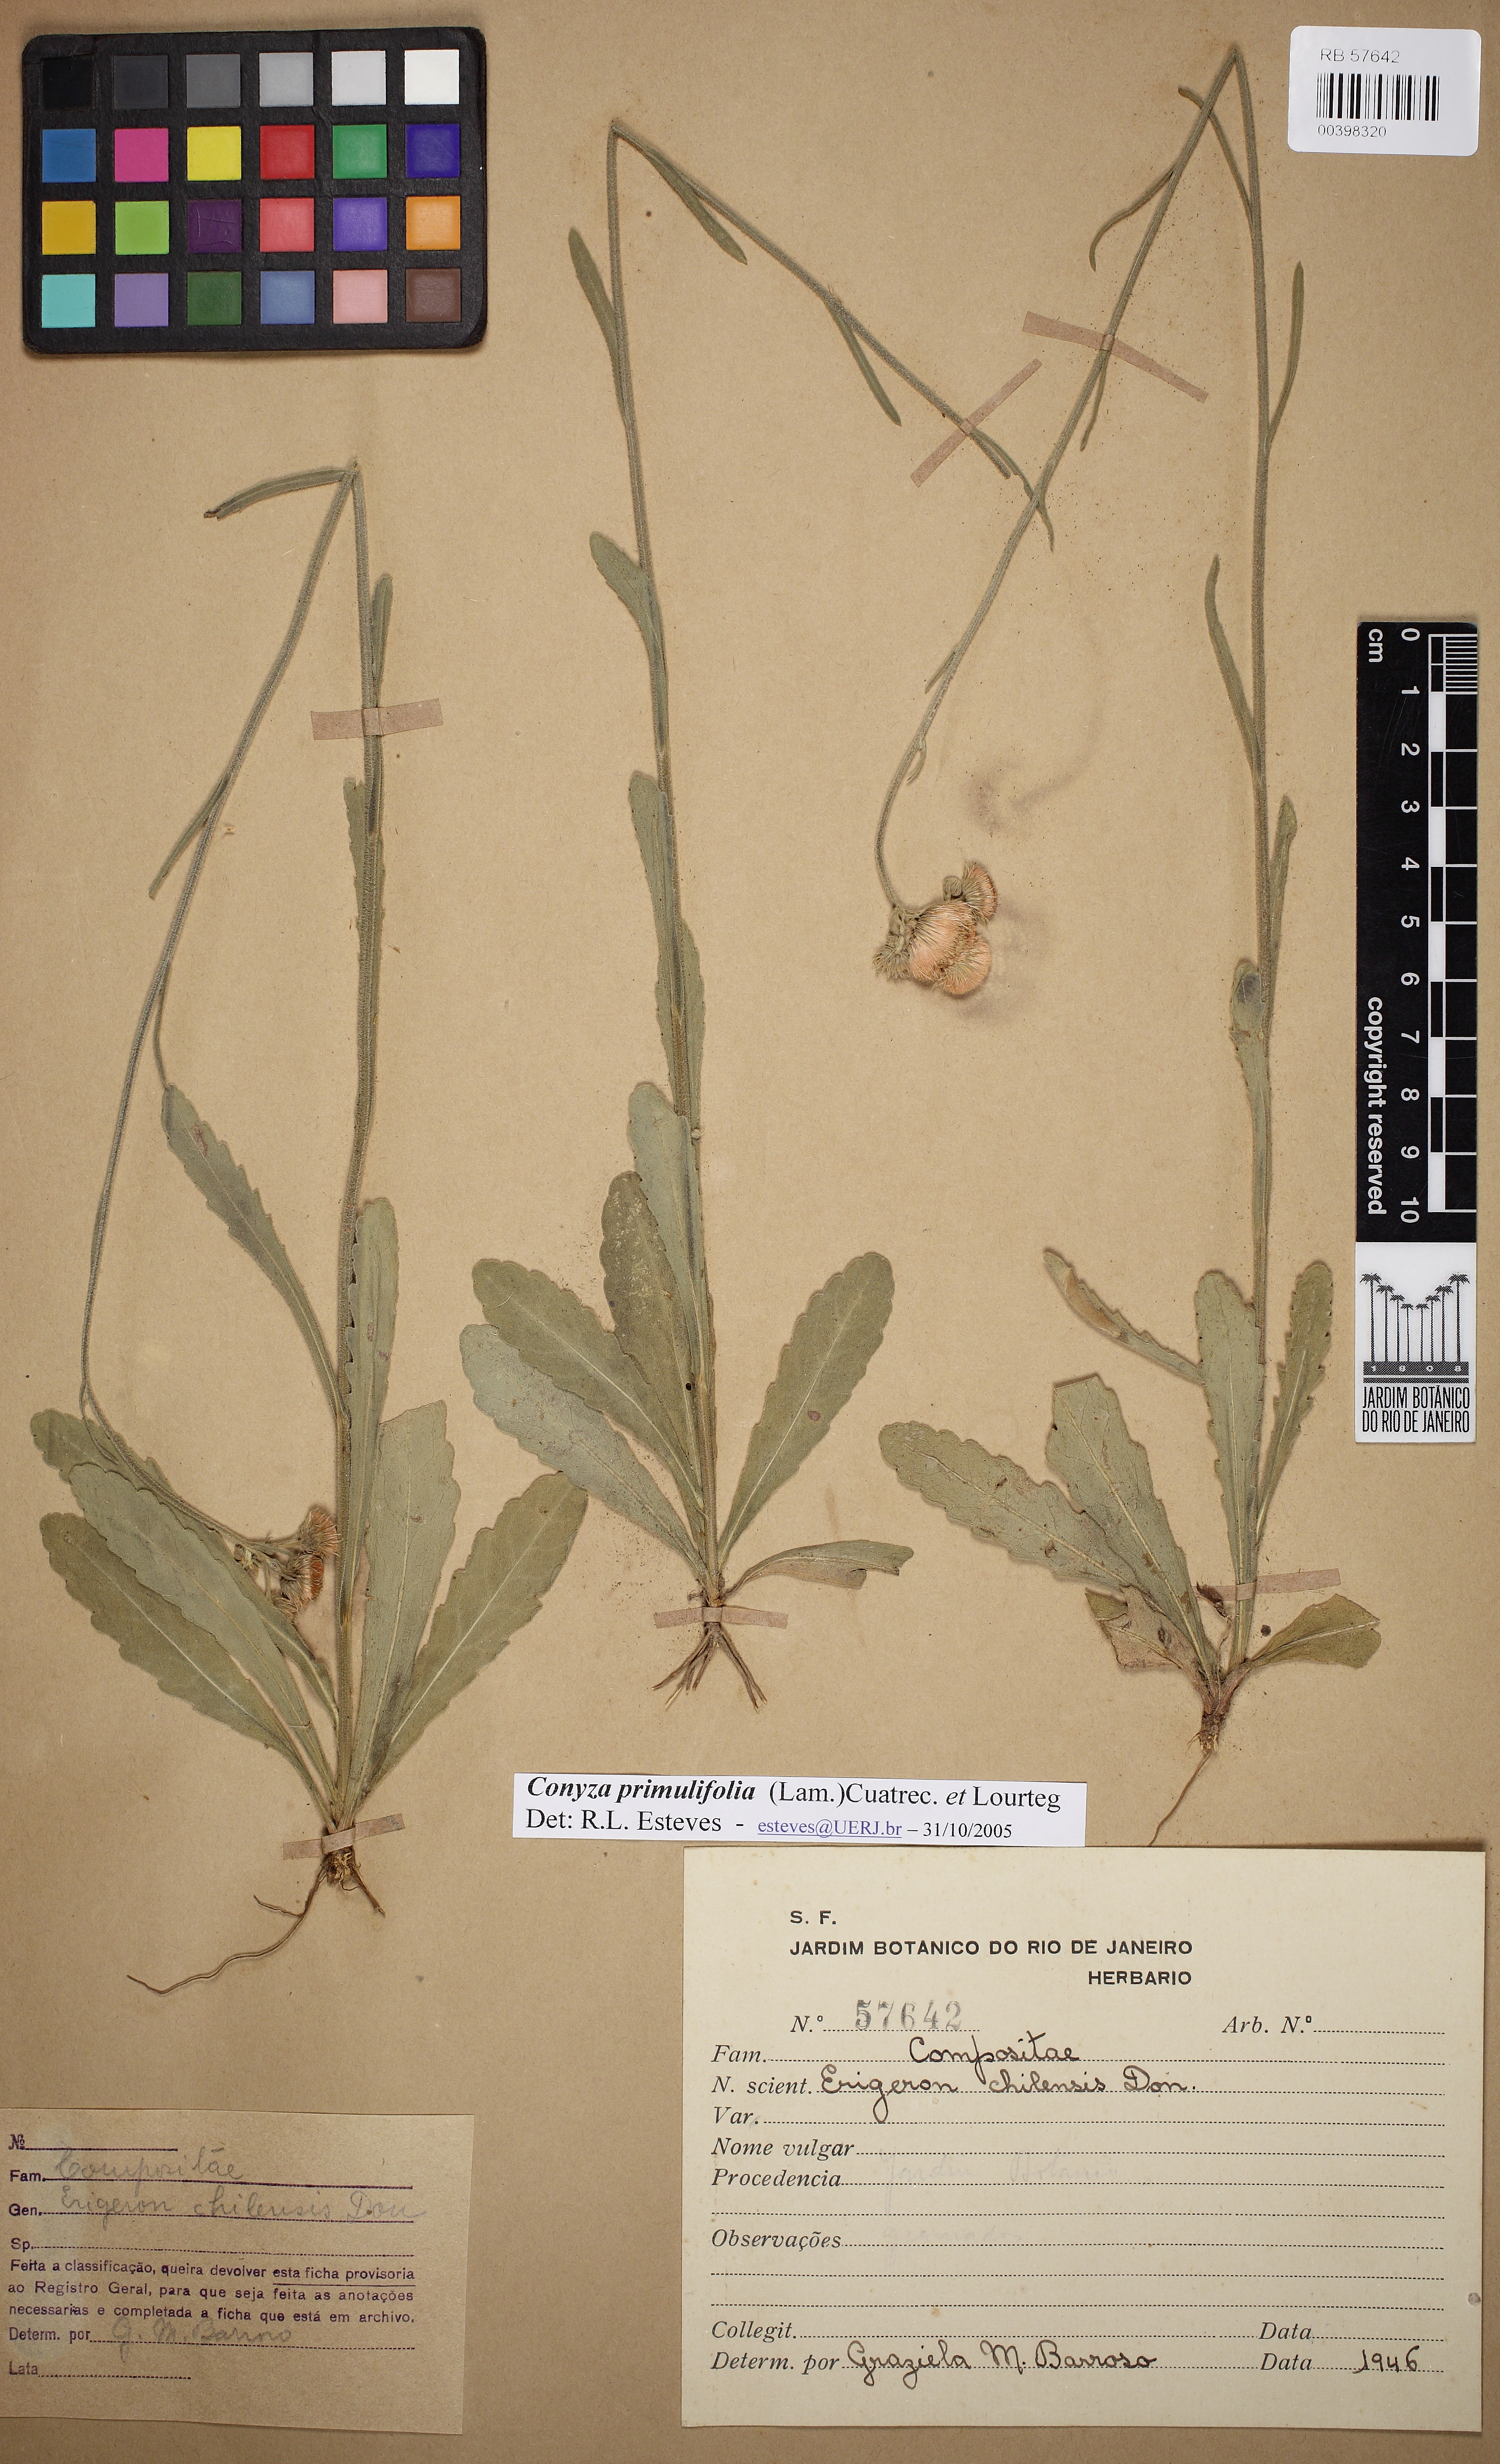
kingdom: Plantae
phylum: Tracheophyta
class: Magnoliopsida
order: Asterales
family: Asteraceae
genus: Erigeron
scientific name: Erigeron primulifolius
